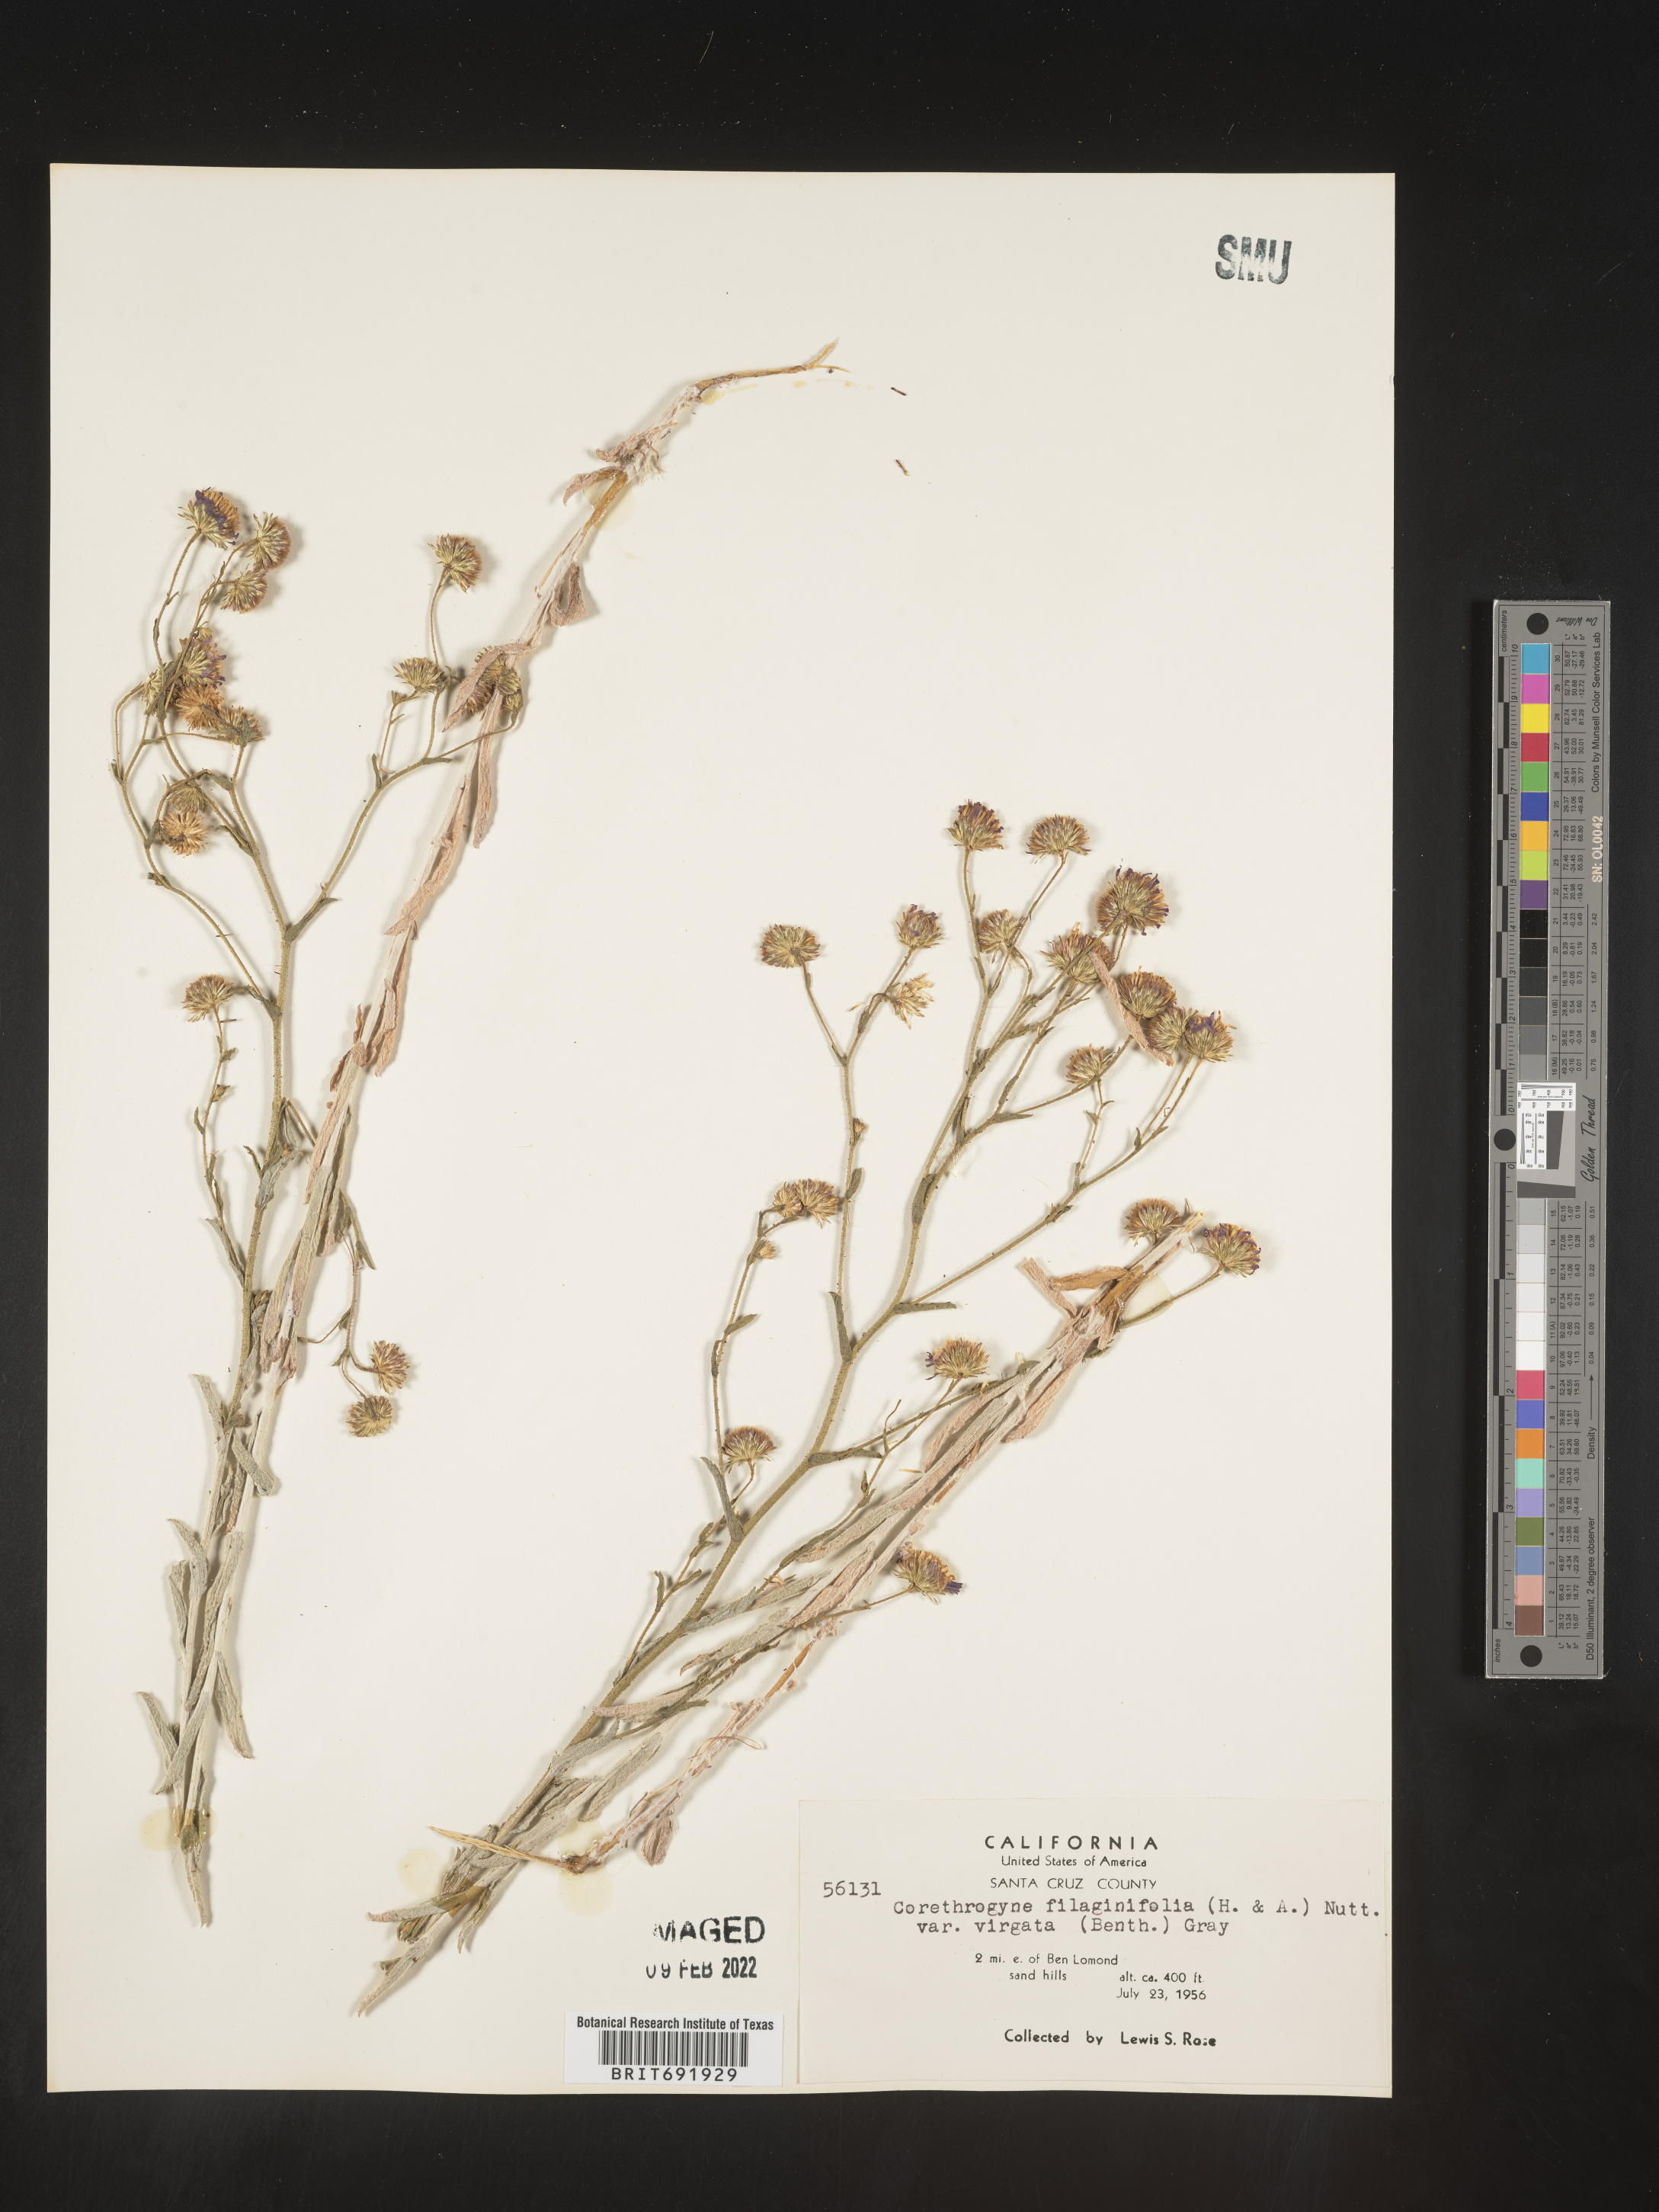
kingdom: Plantae
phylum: Tracheophyta
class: Magnoliopsida
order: Asterales
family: Asteraceae
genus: Corethrogyne
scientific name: Corethrogyne
